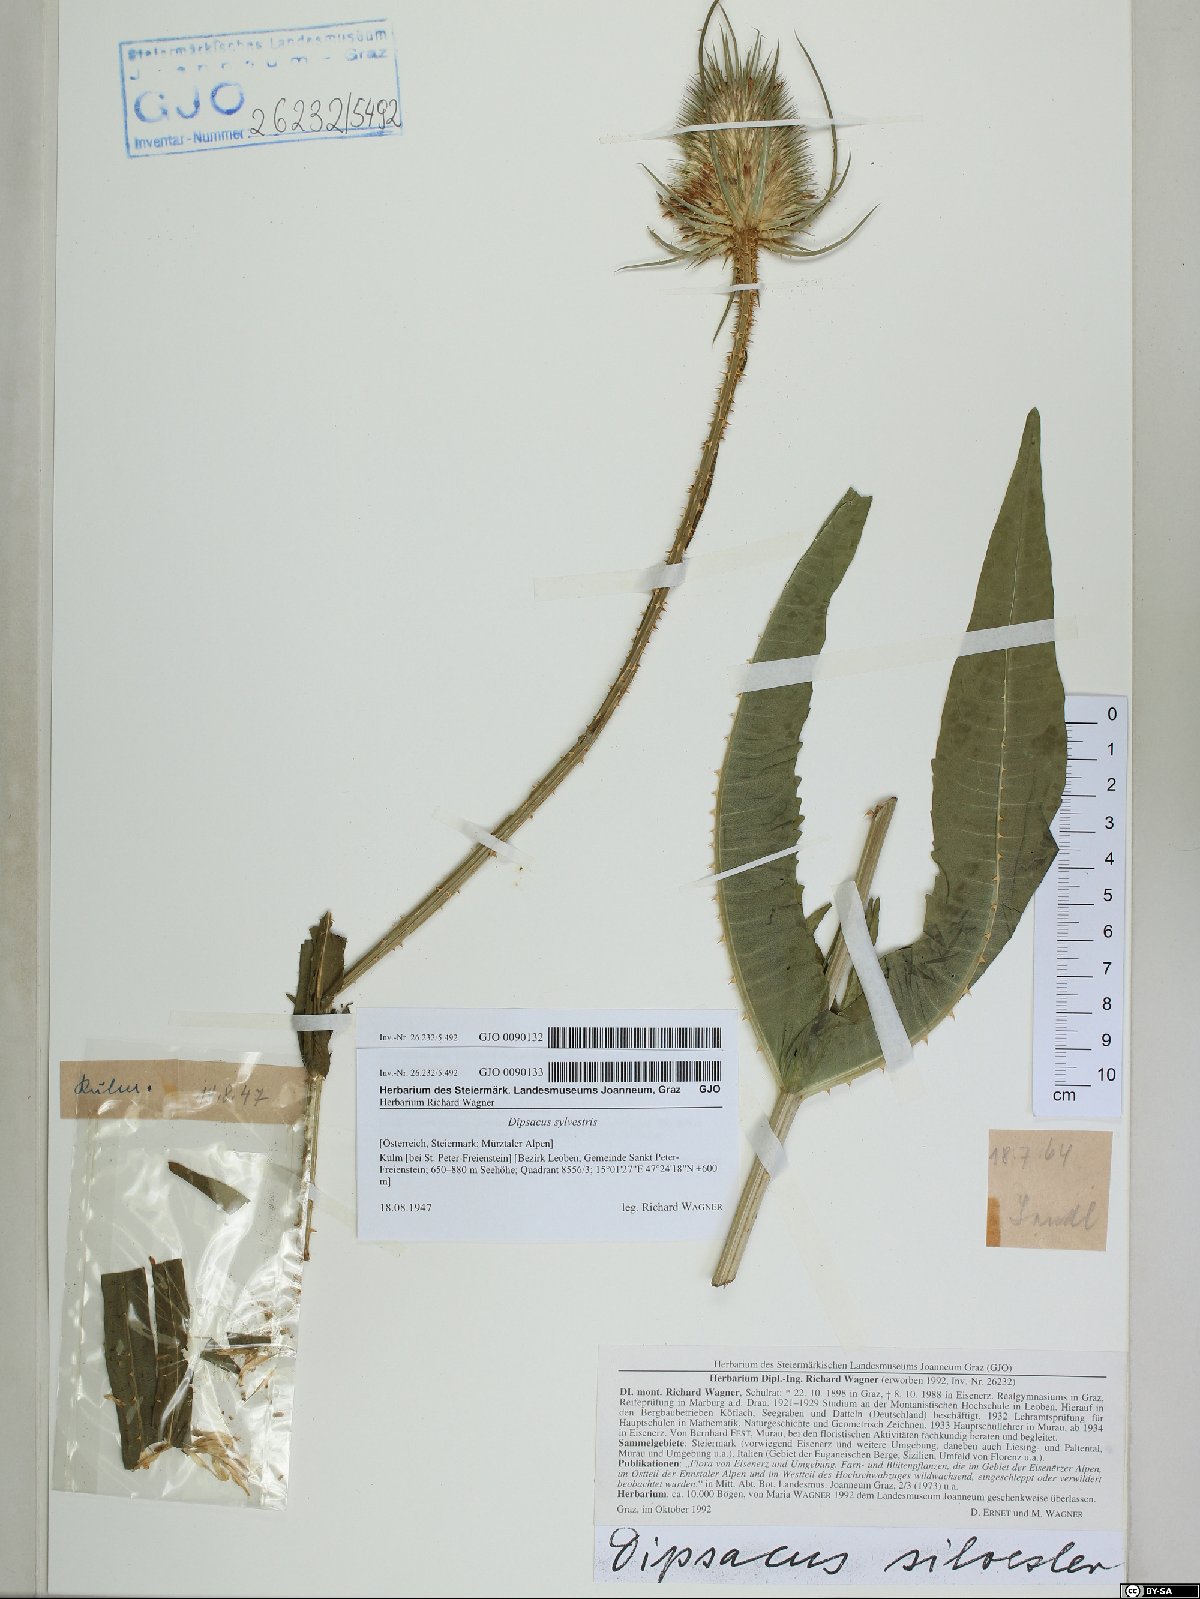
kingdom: Plantae
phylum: Tracheophyta
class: Magnoliopsida
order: Dipsacales
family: Caprifoliaceae
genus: Dipsacus
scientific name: Dipsacus fullonum
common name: Teasel
